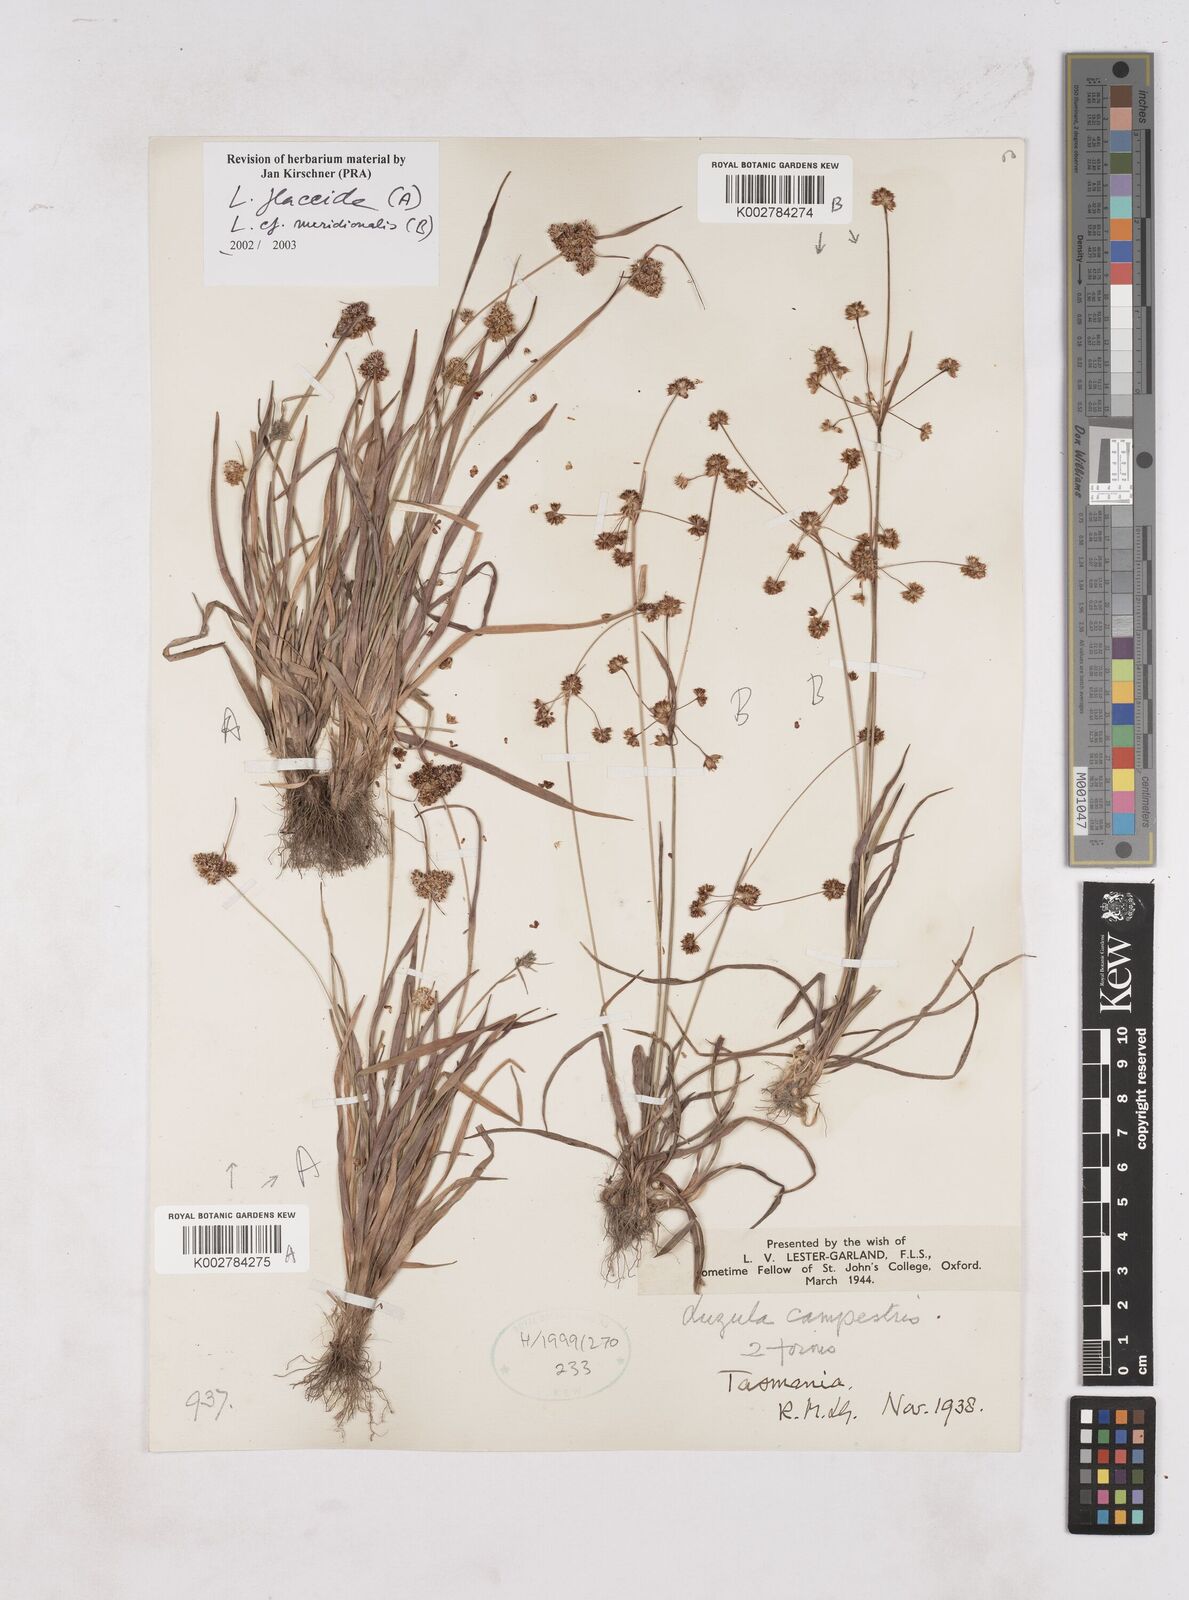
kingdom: Plantae
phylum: Tracheophyta
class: Liliopsida
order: Poales
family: Juncaceae
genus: Luzula
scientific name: Luzula flaccida
